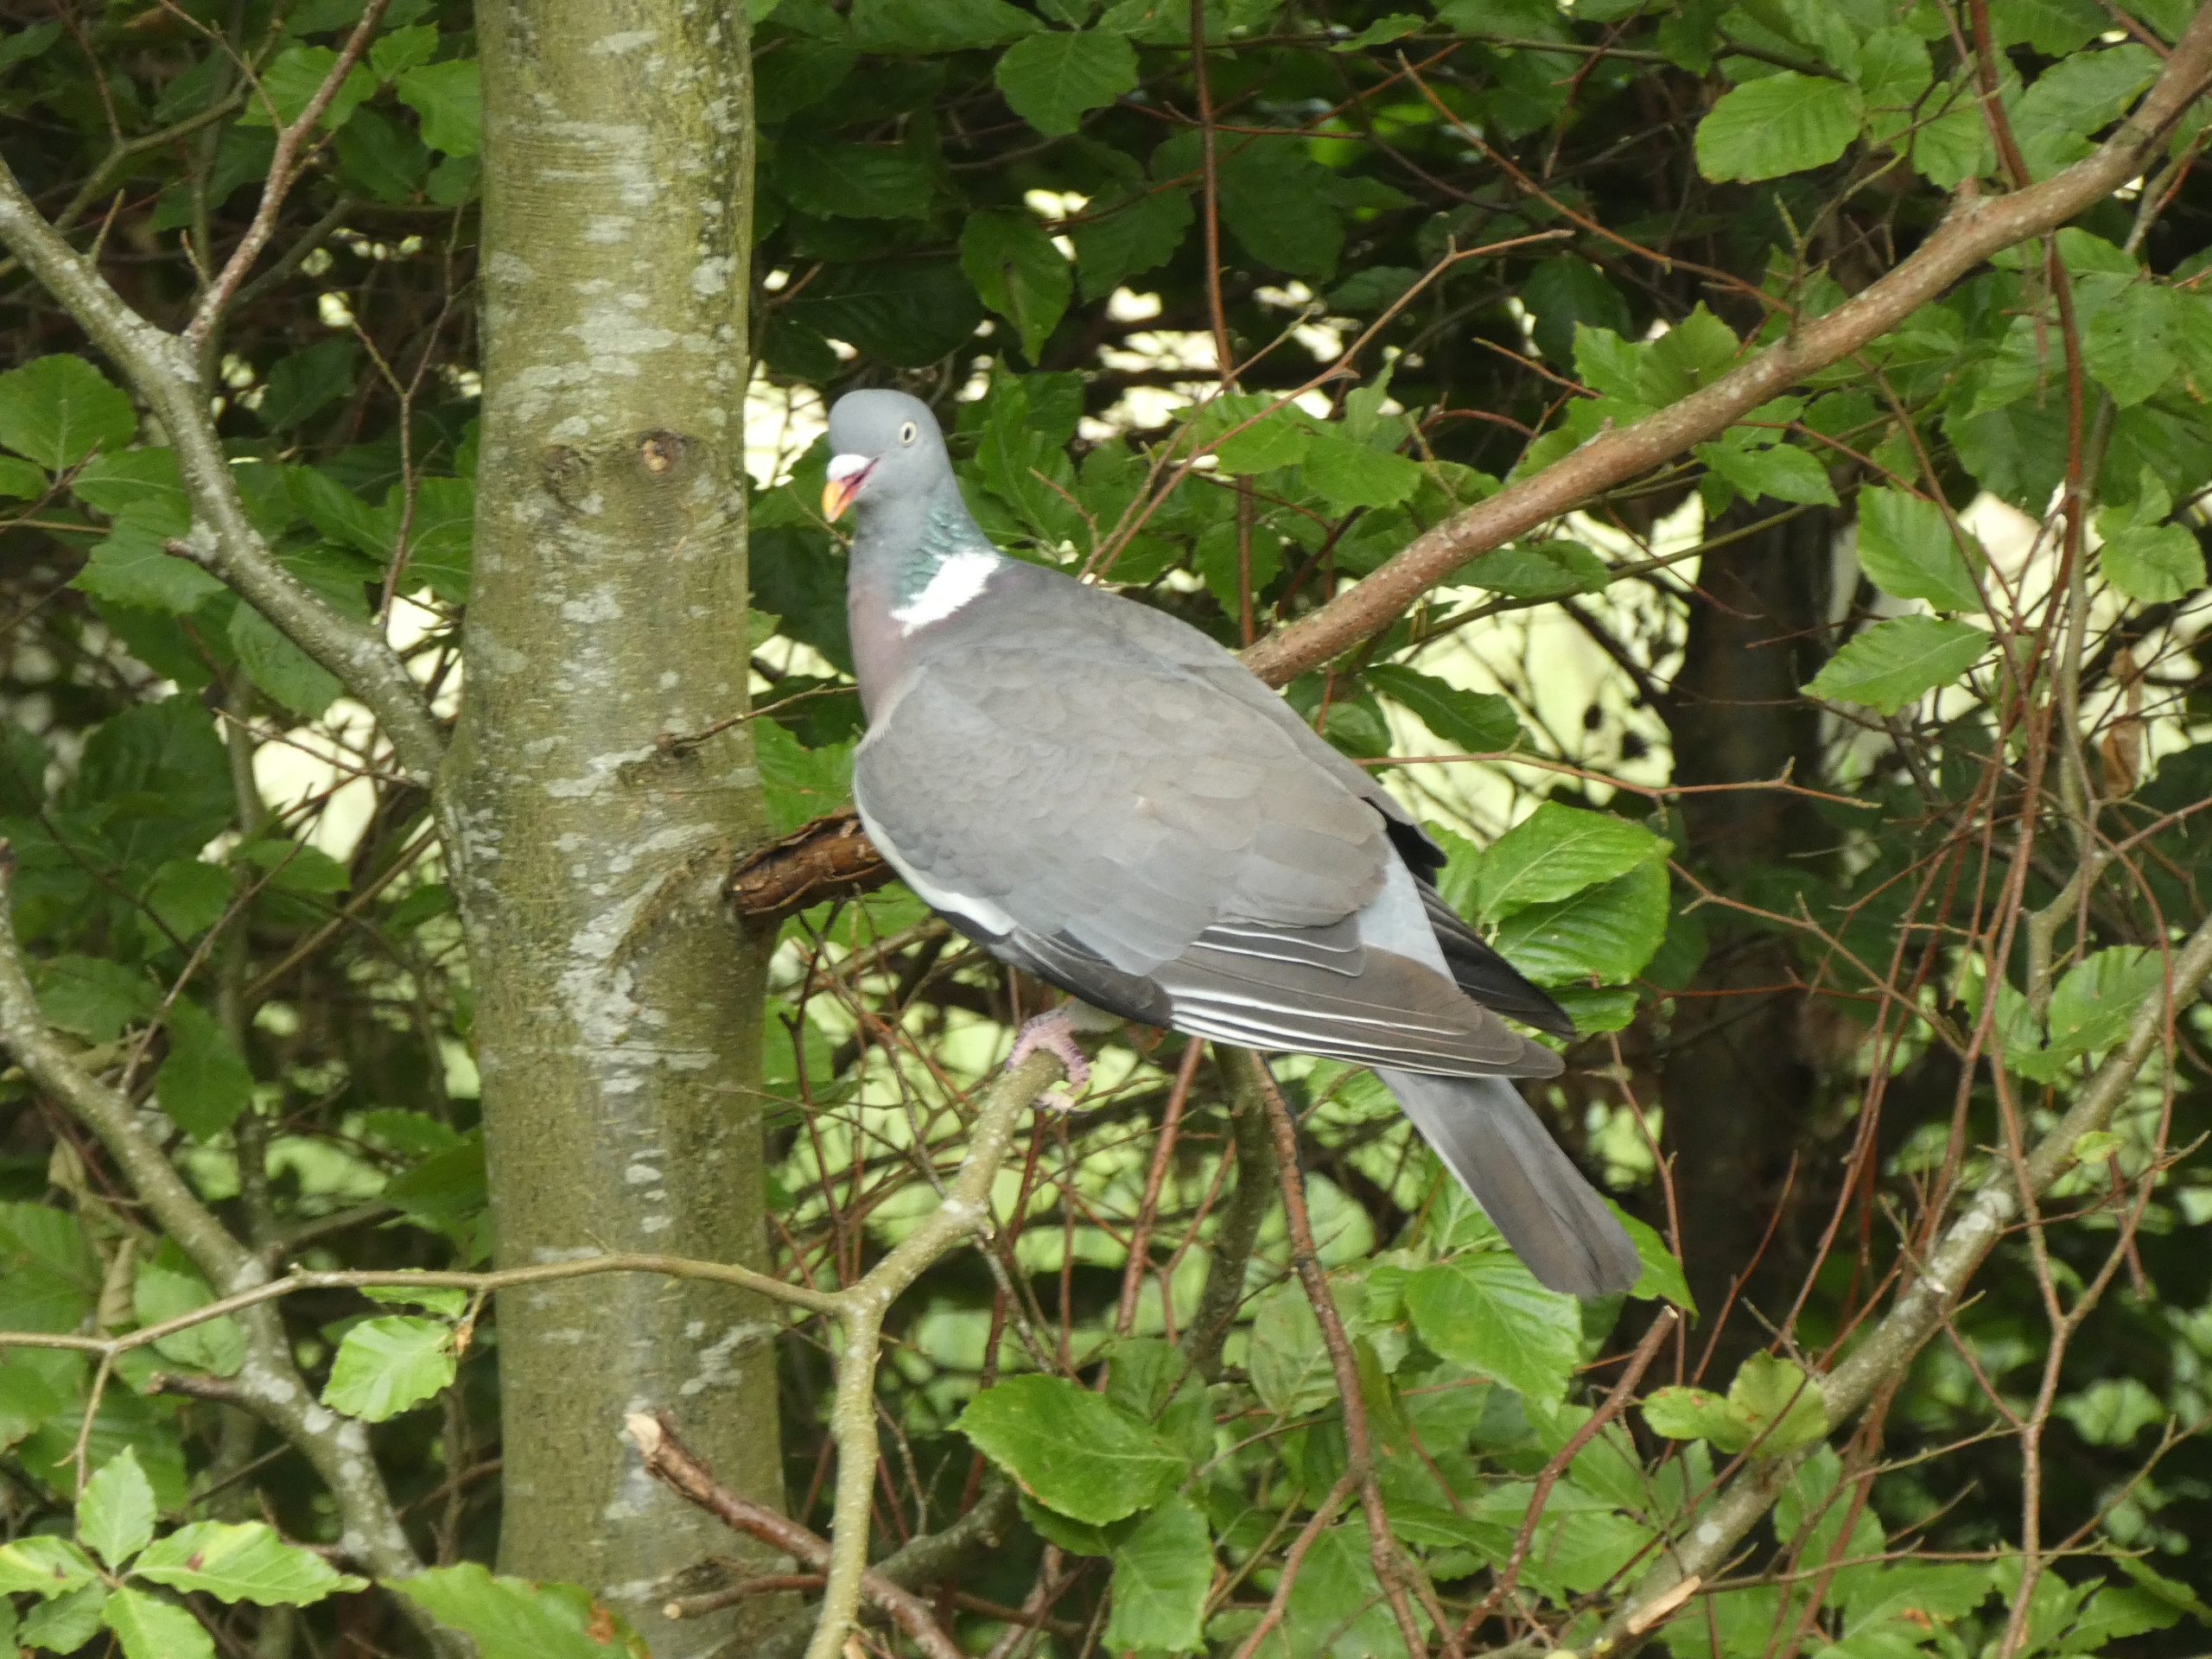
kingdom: Animalia
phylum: Chordata
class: Aves
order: Columbiformes
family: Columbidae
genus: Columba
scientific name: Columba palumbus
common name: Ringdue
